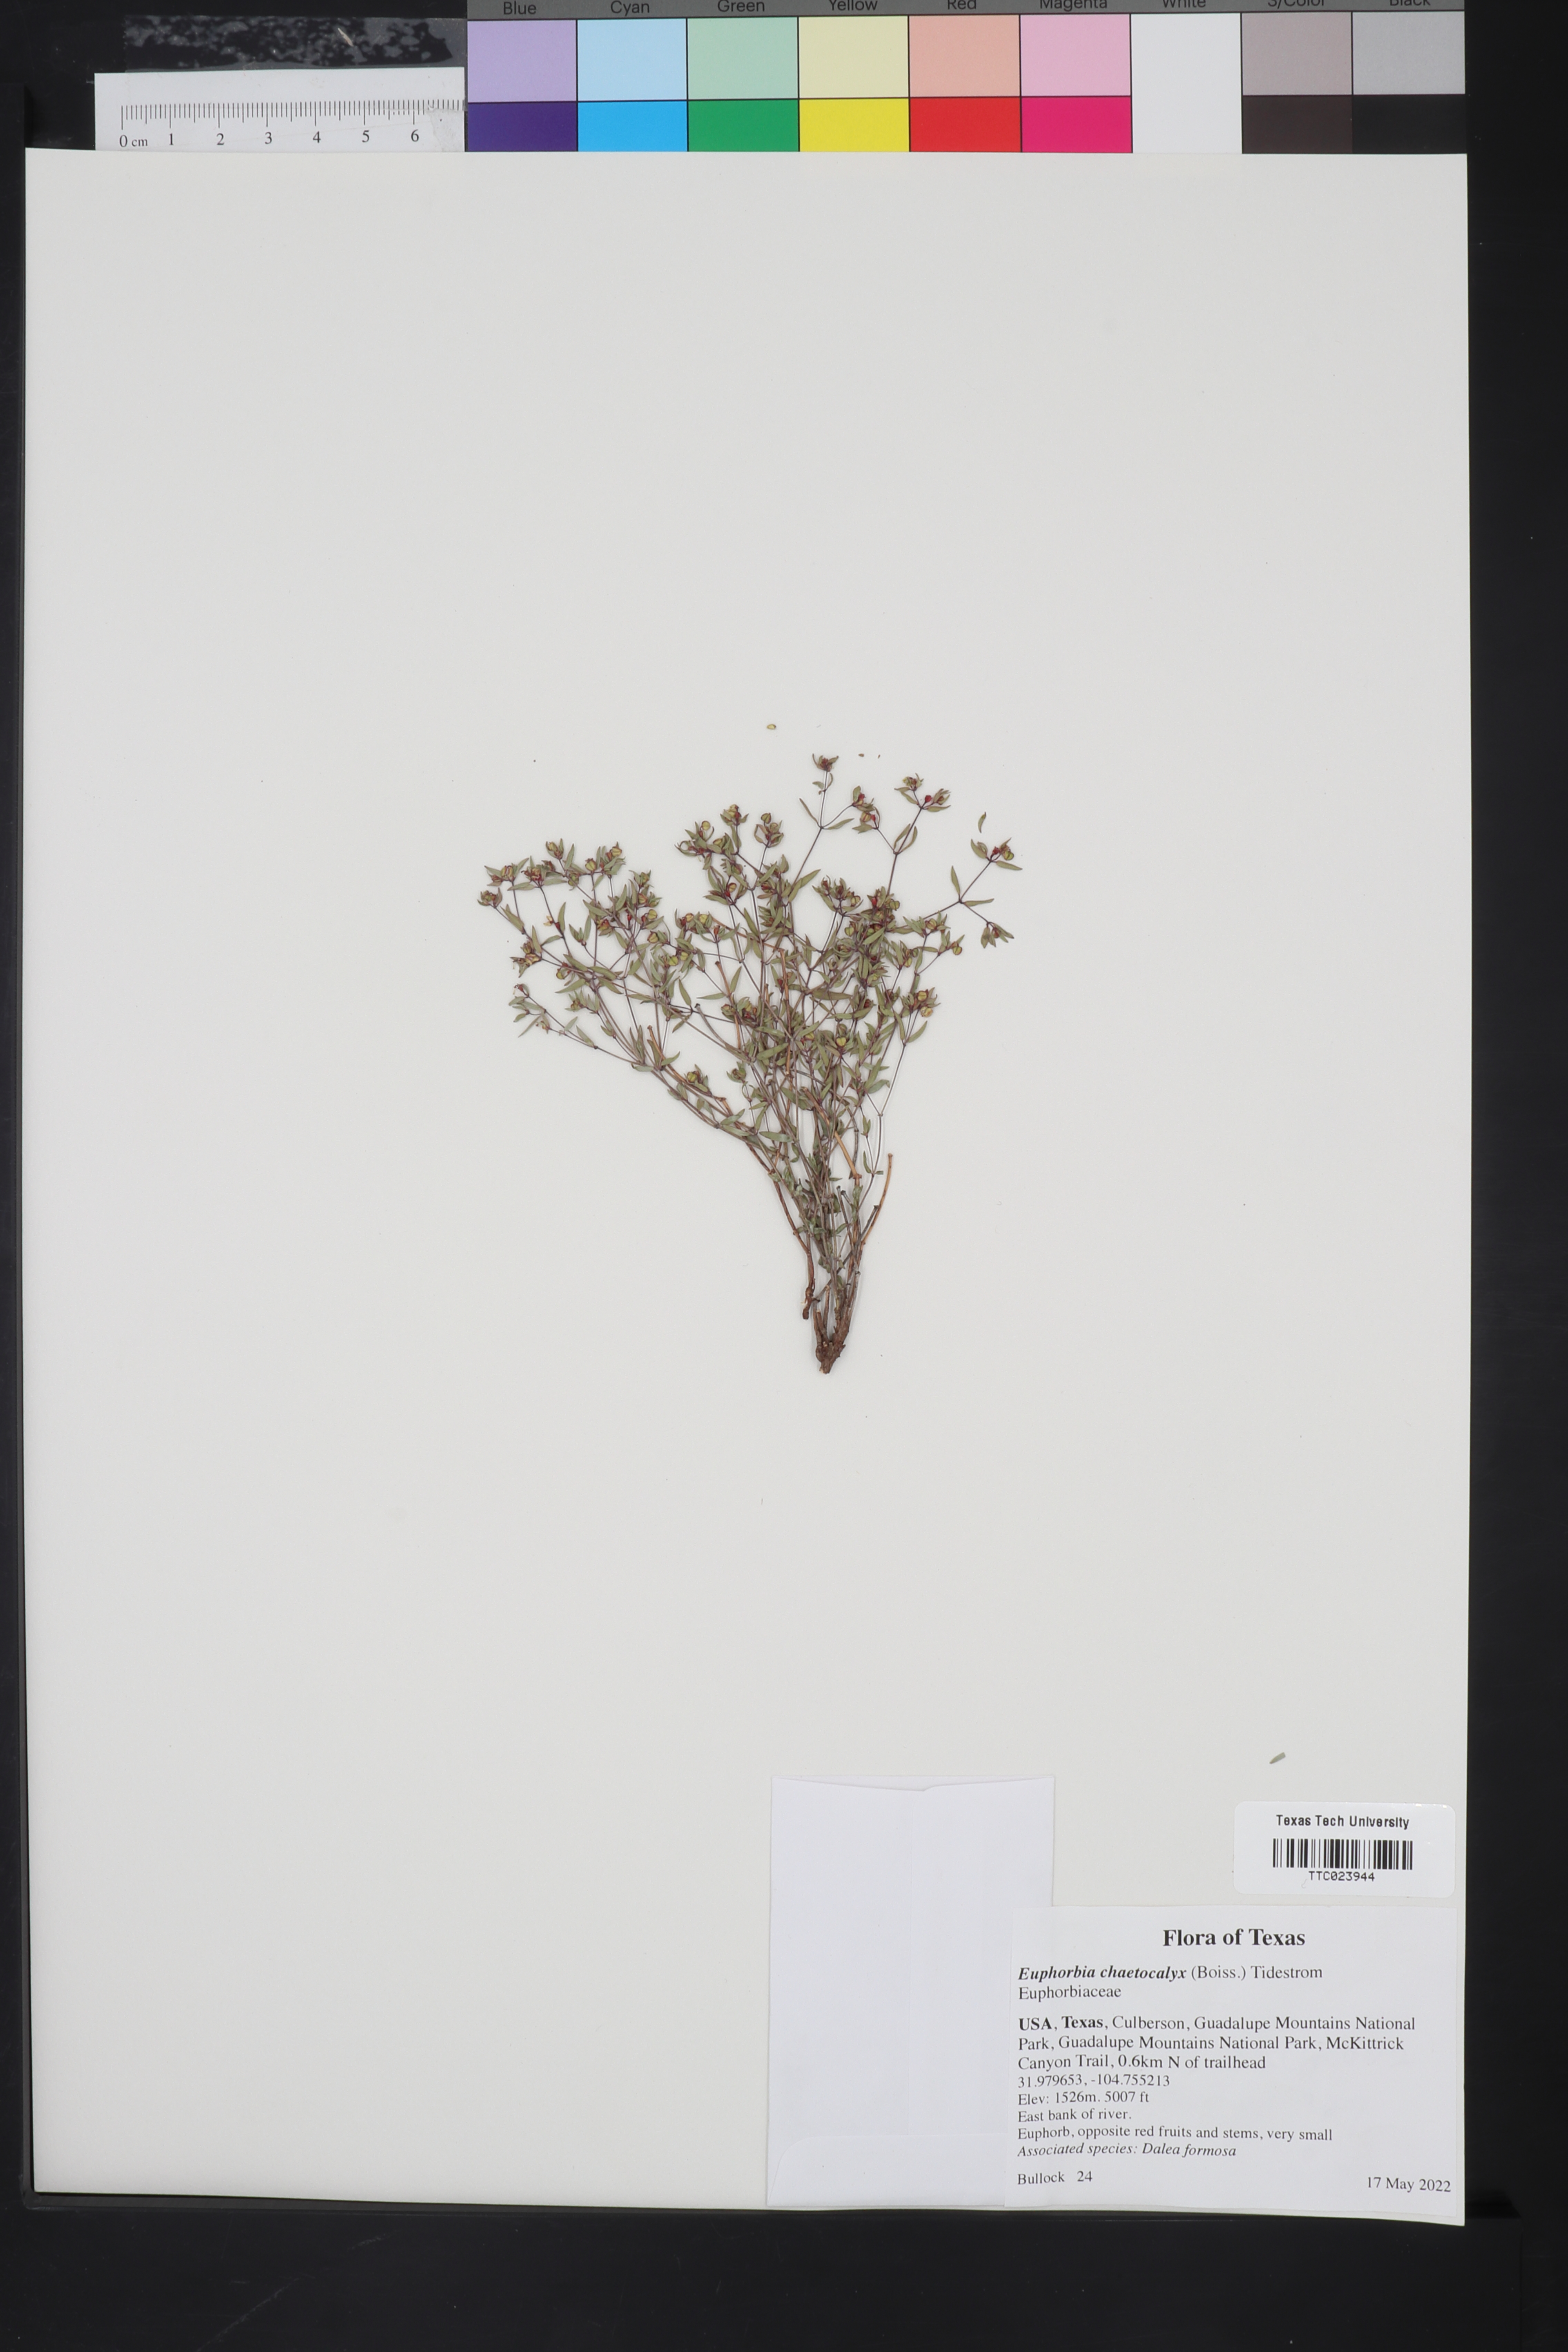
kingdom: Plantae
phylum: Tracheophyta
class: Magnoliopsida
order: Malpighiales
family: Euphorbiaceae
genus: Euphorbia
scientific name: Euphorbia chaetocalyx
